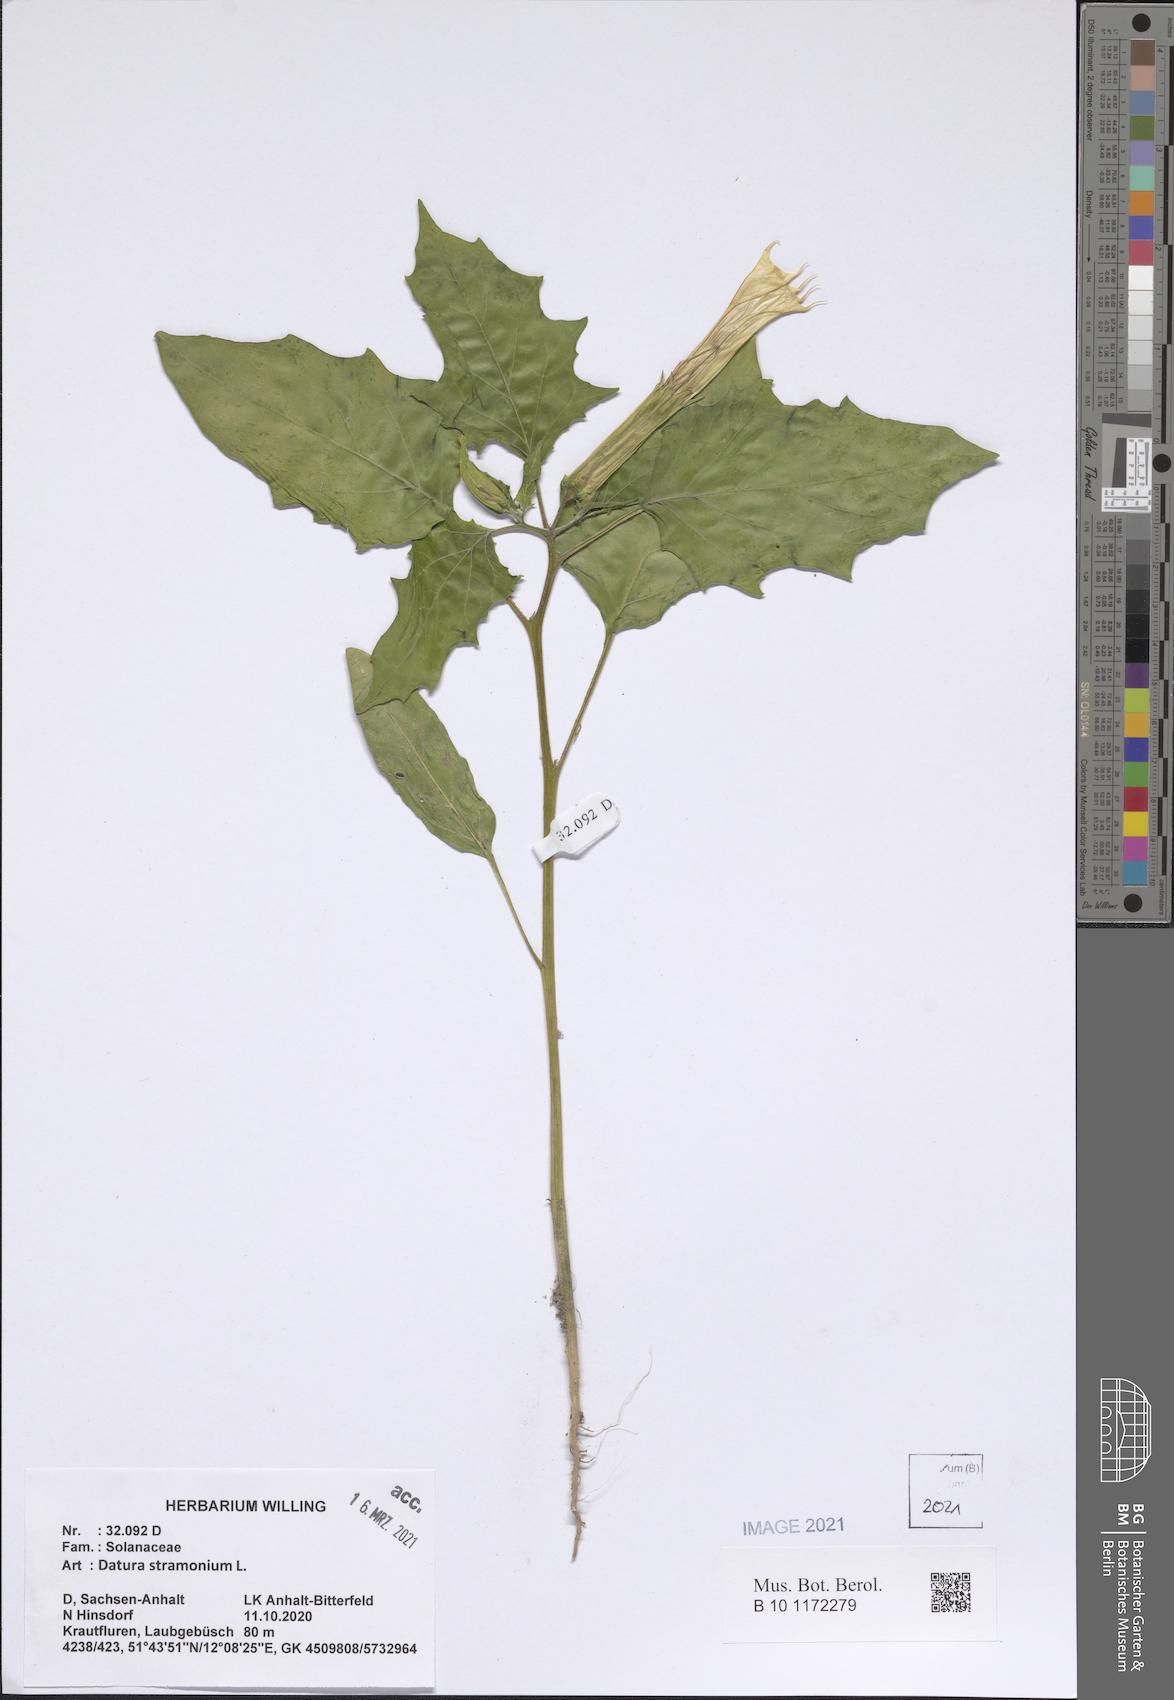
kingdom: Plantae
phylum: Tracheophyta
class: Magnoliopsida
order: Solanales
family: Solanaceae
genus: Datura
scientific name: Datura stramonium
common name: Thorn-apple
